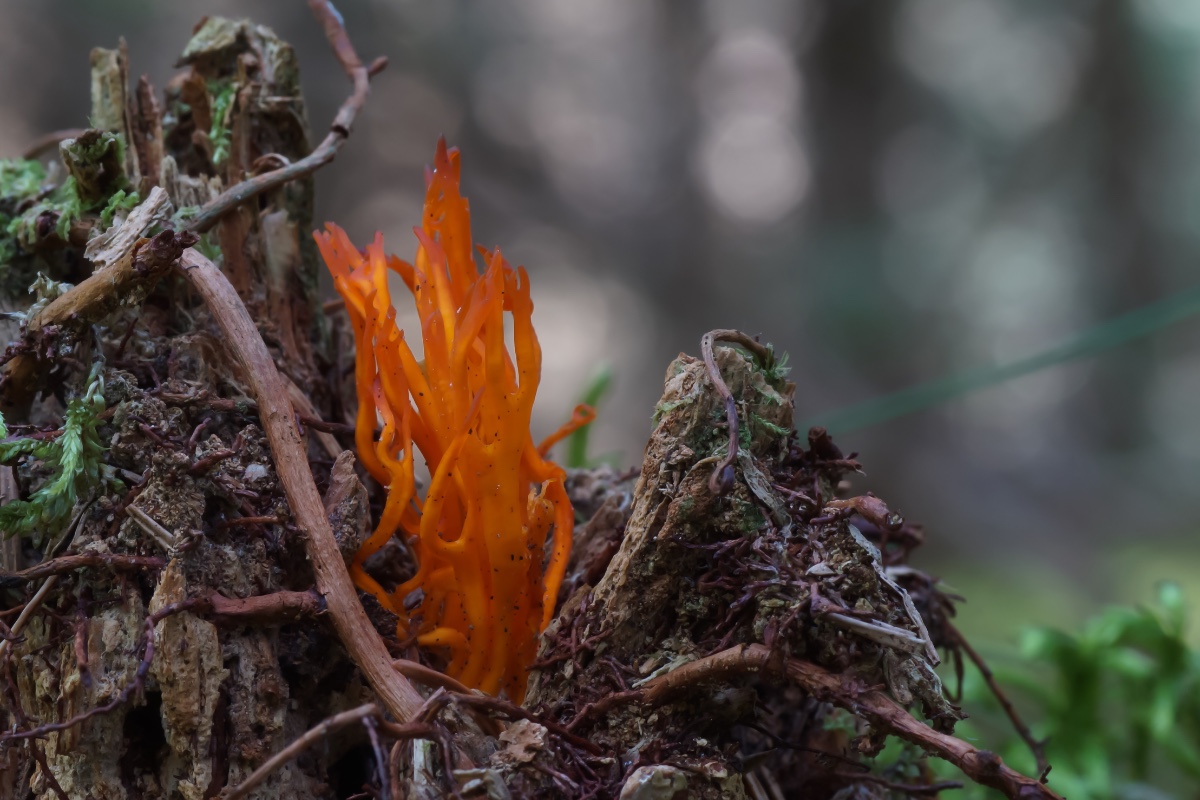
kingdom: Fungi
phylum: Basidiomycota
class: Dacrymycetes
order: Dacrymycetales
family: Dacrymycetaceae
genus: Calocera
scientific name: Calocera viscosa
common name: almindelig guldgaffel
